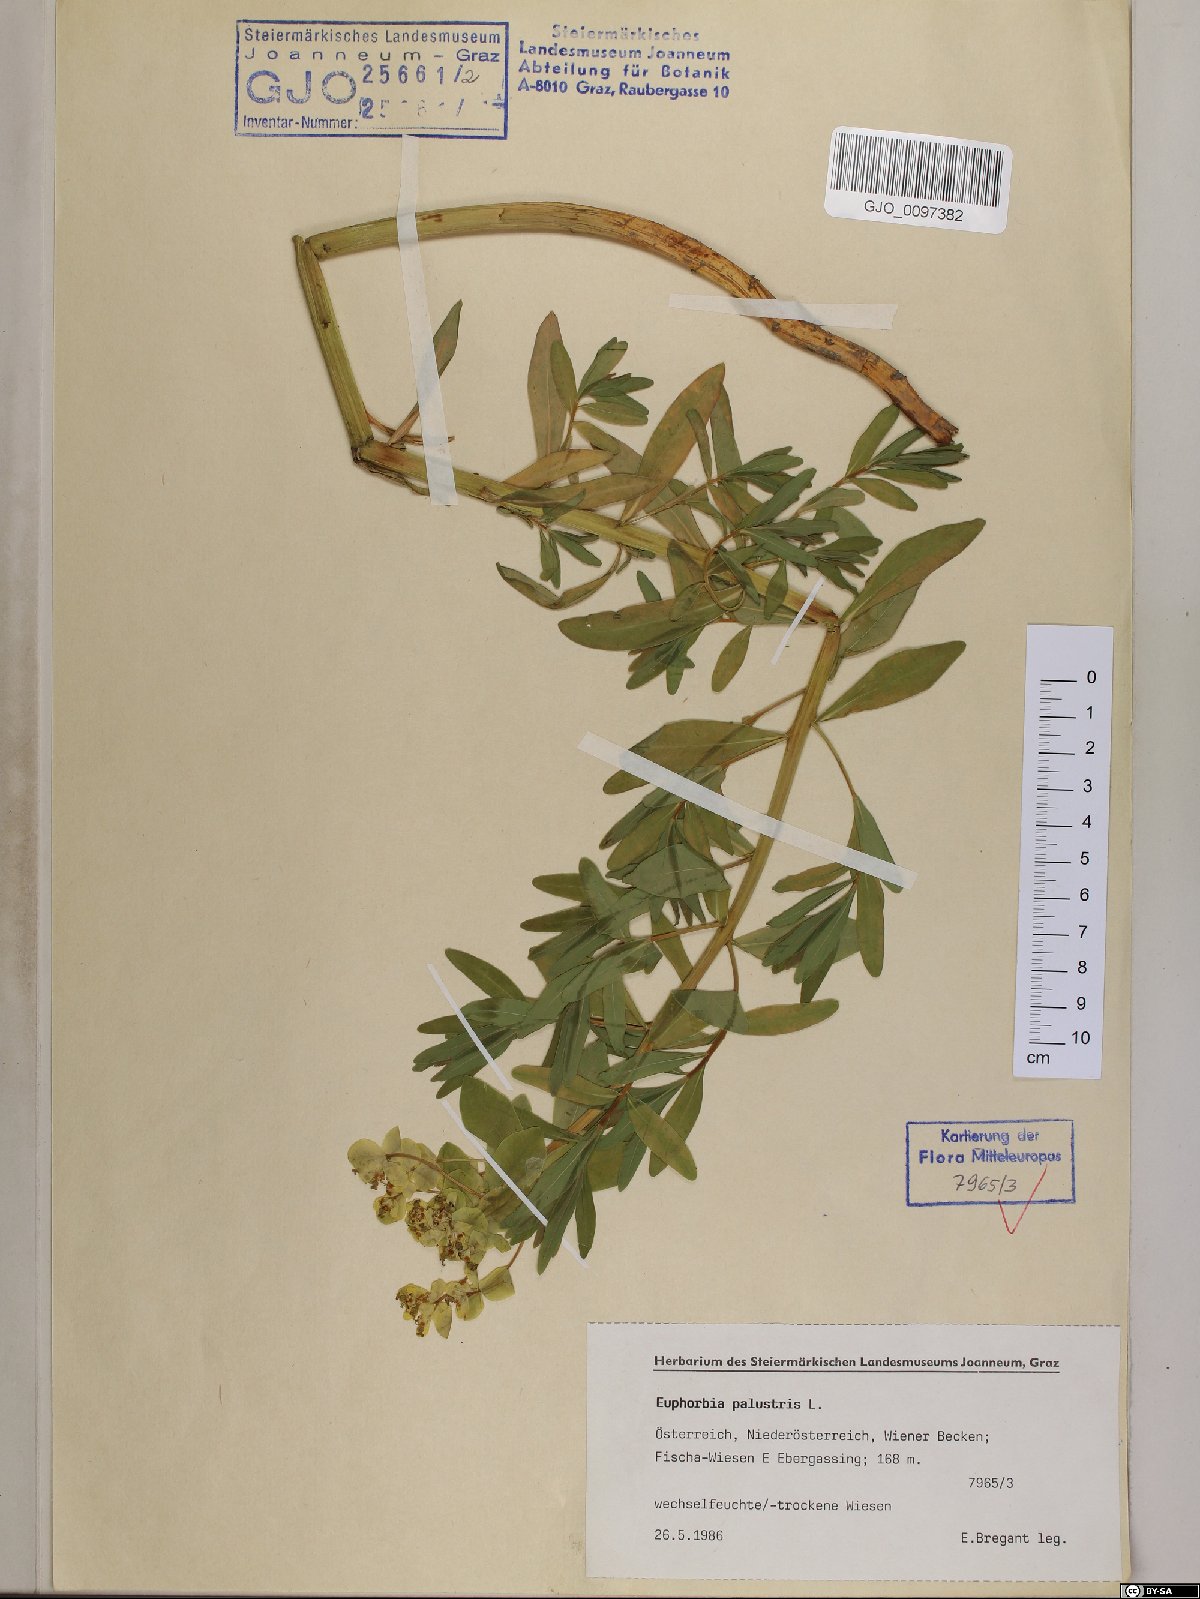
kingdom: Plantae
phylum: Tracheophyta
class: Magnoliopsida
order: Malpighiales
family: Euphorbiaceae
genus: Euphorbia
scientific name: Euphorbia palustris
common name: Marsh spurge
